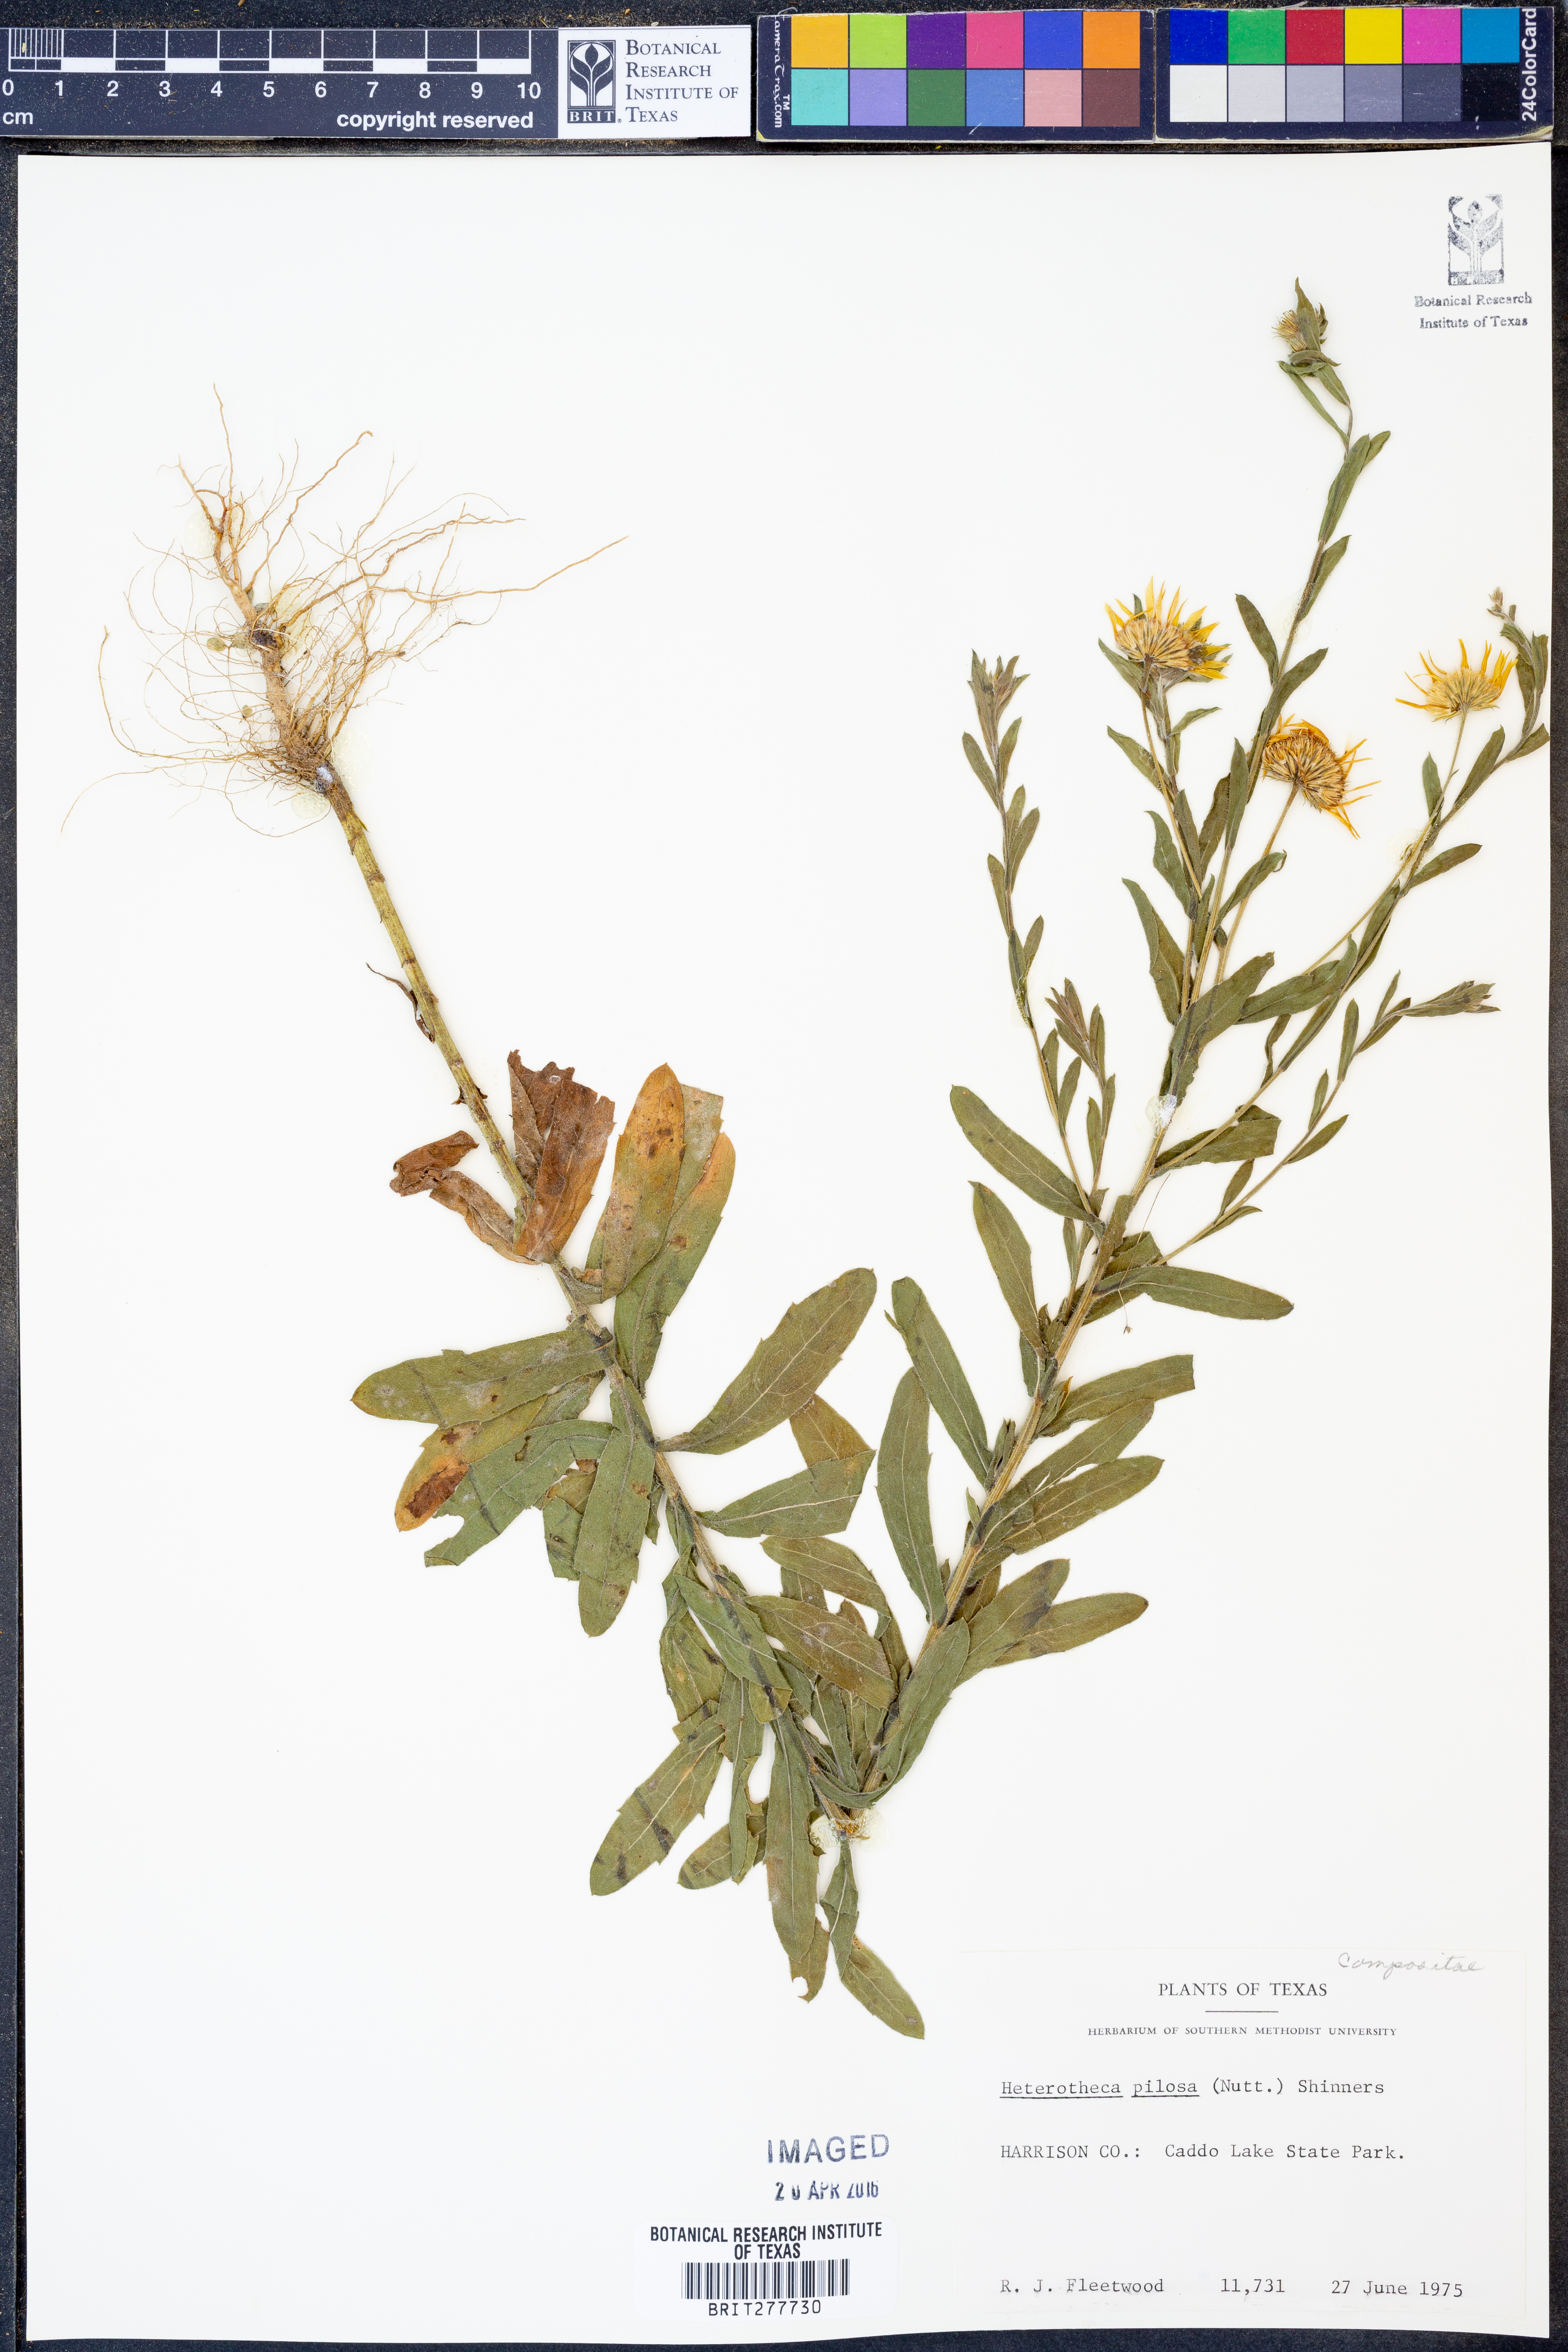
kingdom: Plantae
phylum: Tracheophyta
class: Magnoliopsida
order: Asterales
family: Asteraceae
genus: Bradburia
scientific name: Bradburia pilosa
